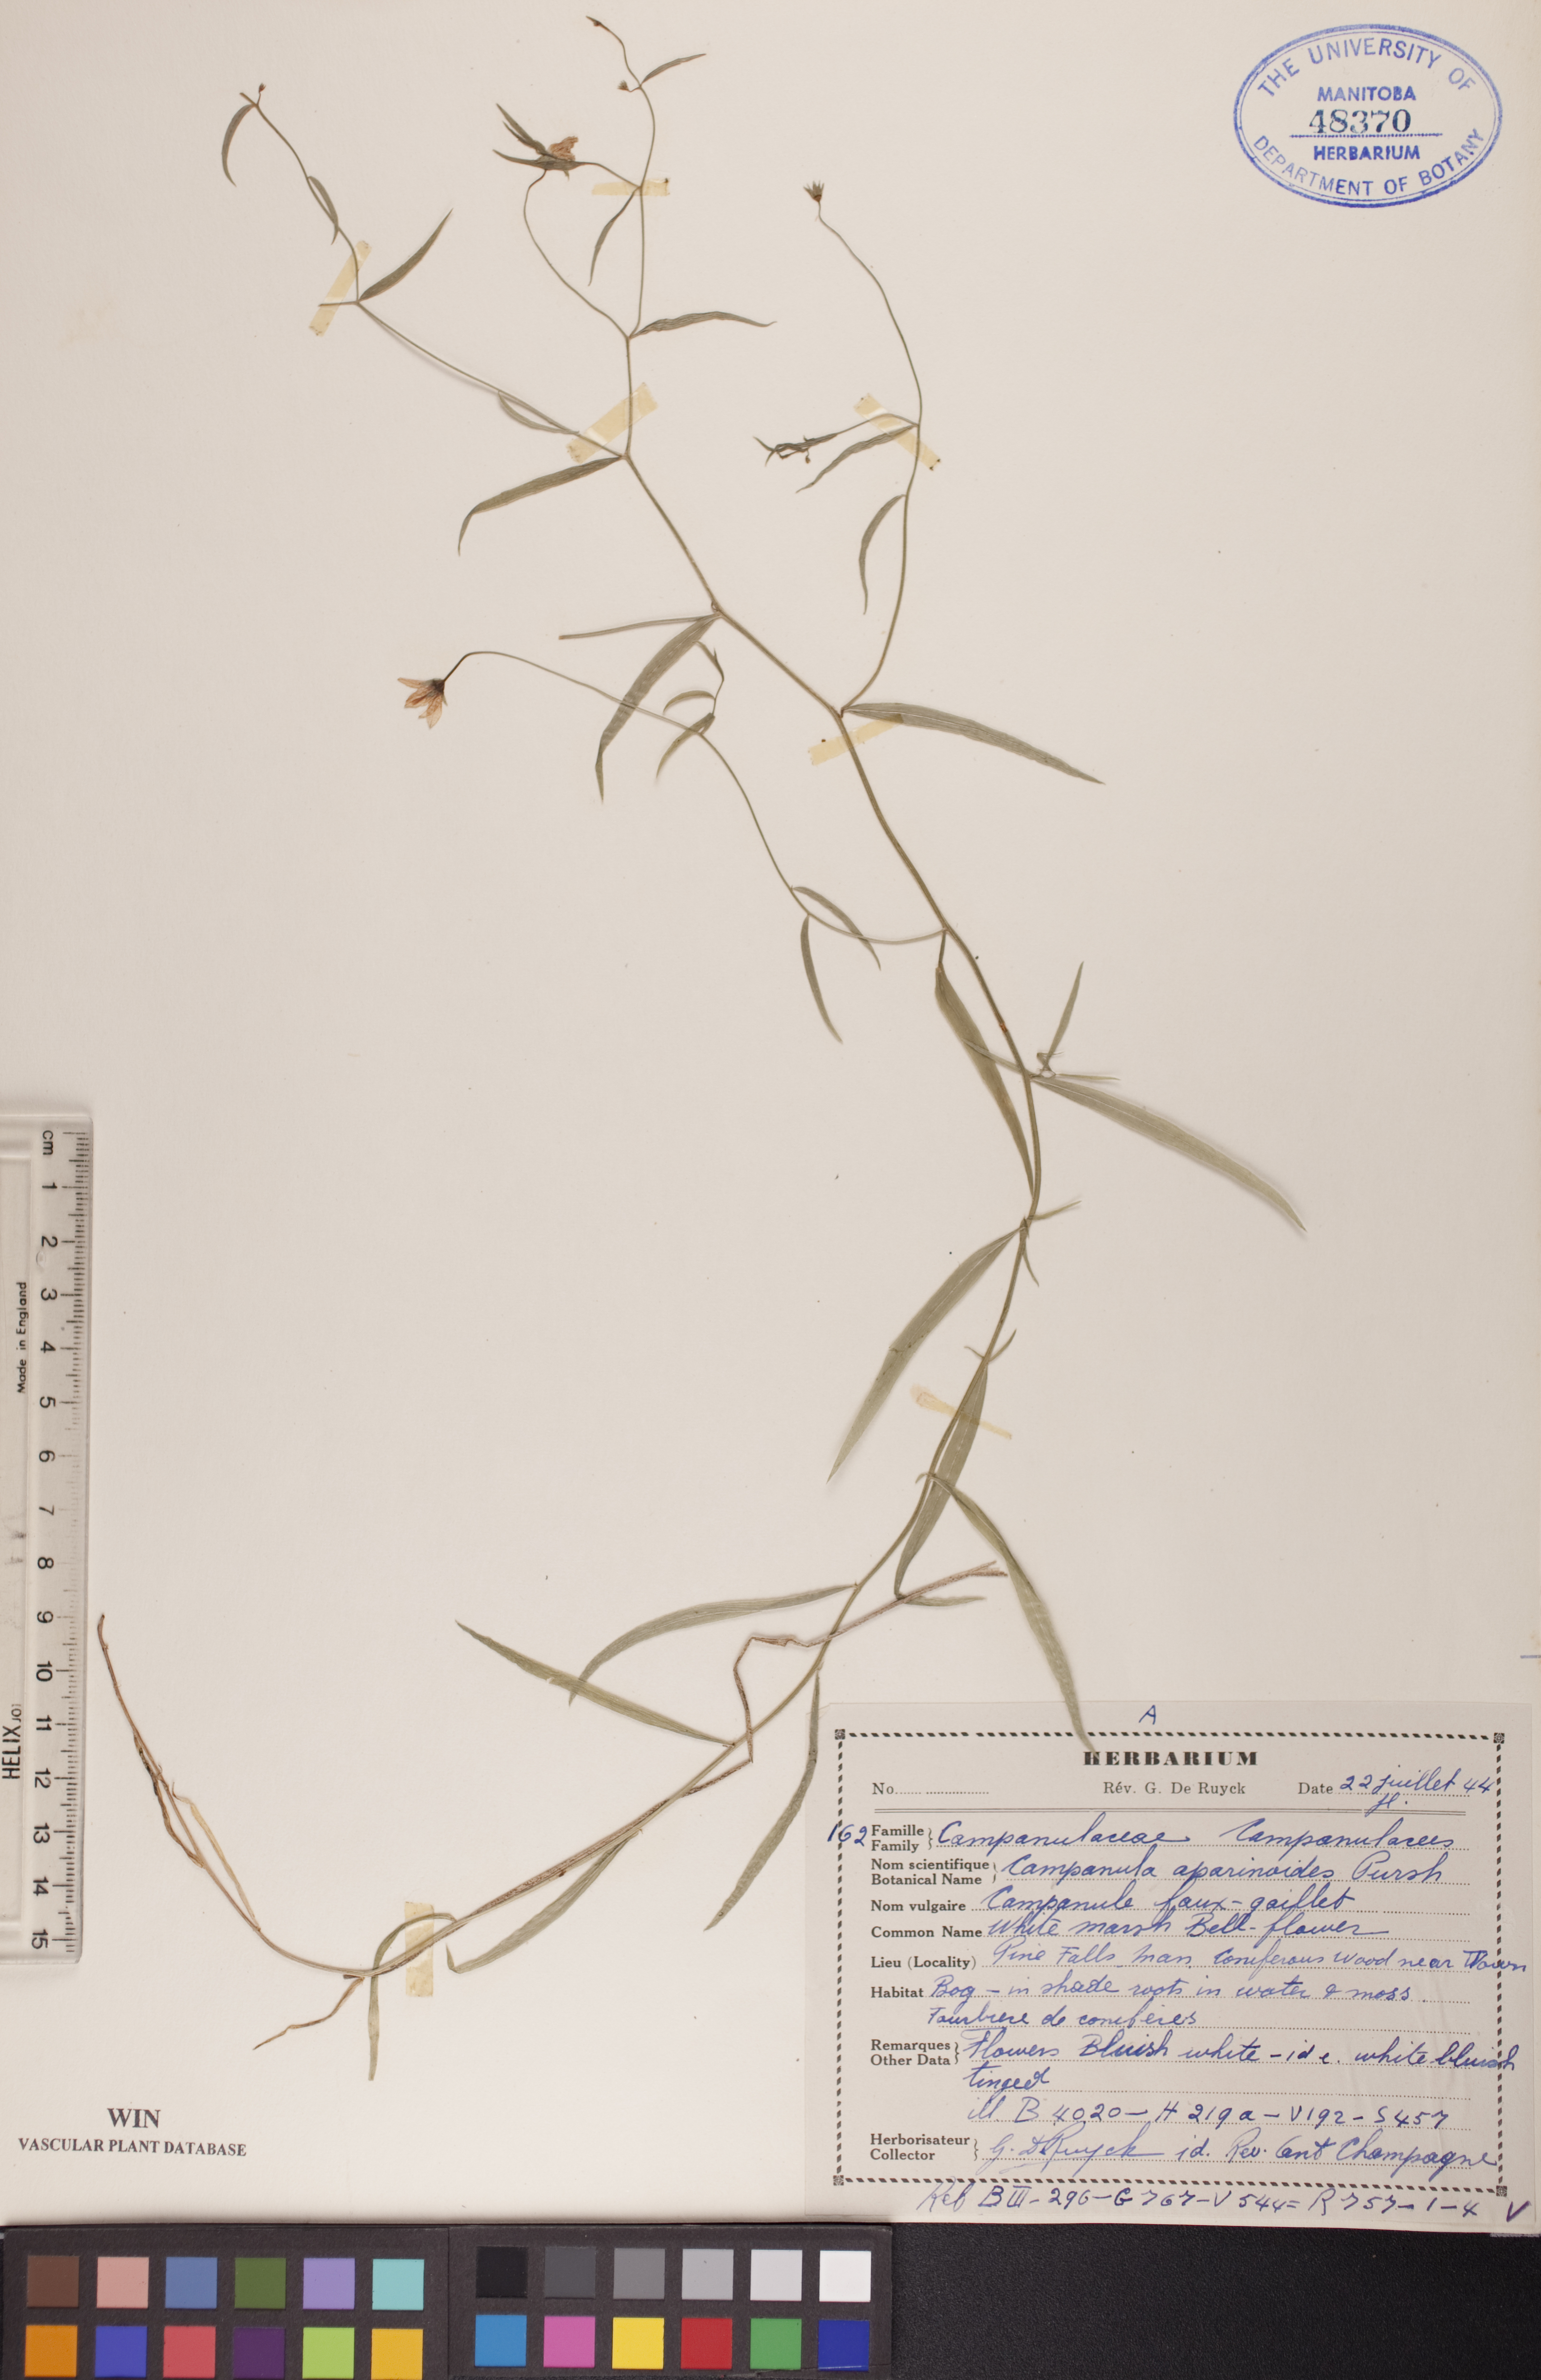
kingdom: Plantae
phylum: Tracheophyta
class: Magnoliopsida
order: Asterales
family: Campanulaceae
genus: Palustricodon
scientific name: Palustricodon aparinoides
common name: Bedstraw bellflower
